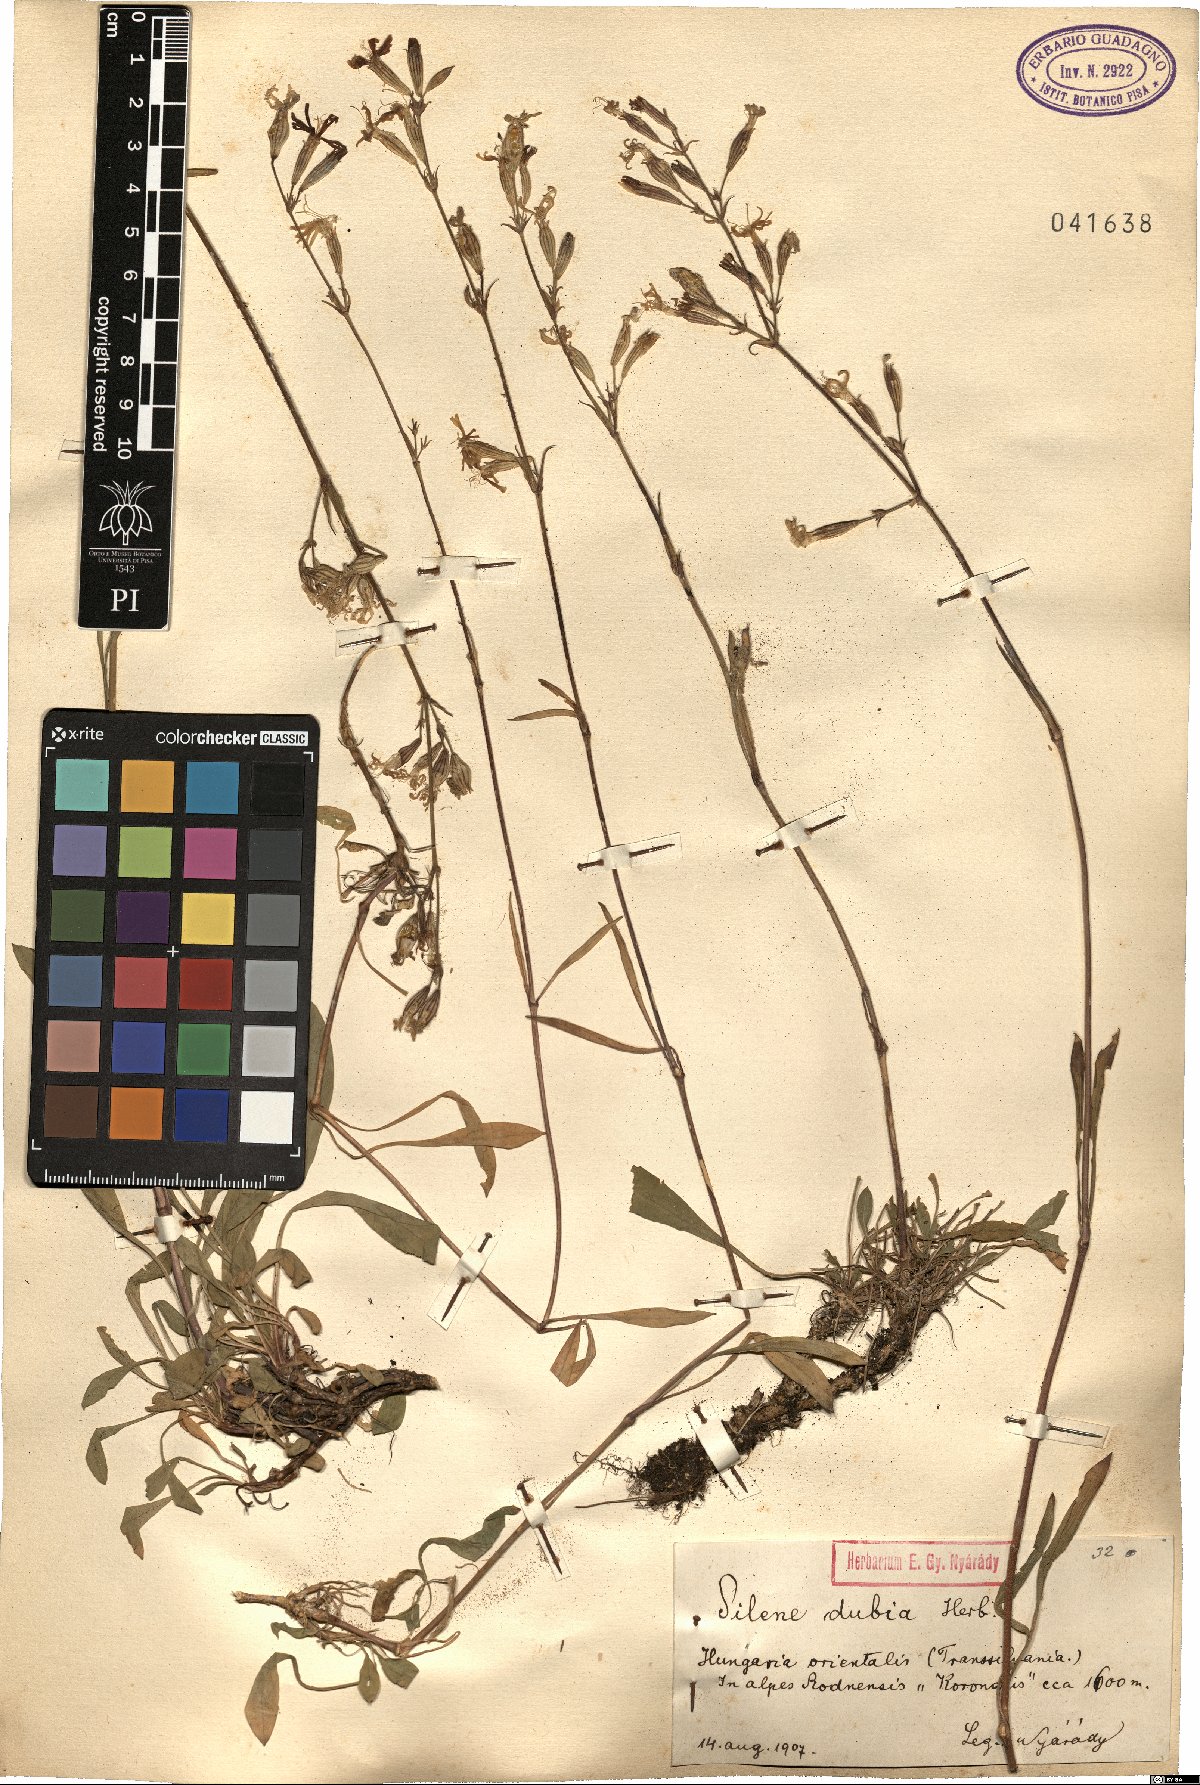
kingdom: Plantae
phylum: Tracheophyta
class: Magnoliopsida
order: Caryophyllales
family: Caryophyllaceae
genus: Silene
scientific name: Silene nutans
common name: Nottingham catchfly
